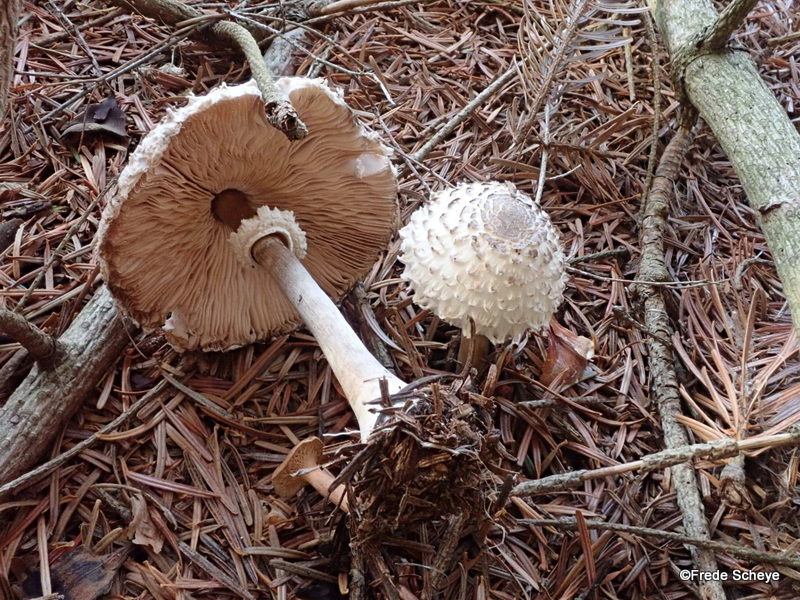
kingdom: Fungi
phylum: Basidiomycota
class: Agaricomycetes
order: Agaricales
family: Agaricaceae
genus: Leucoagaricus
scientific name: Leucoagaricus nympharum
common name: gran-silkehat
